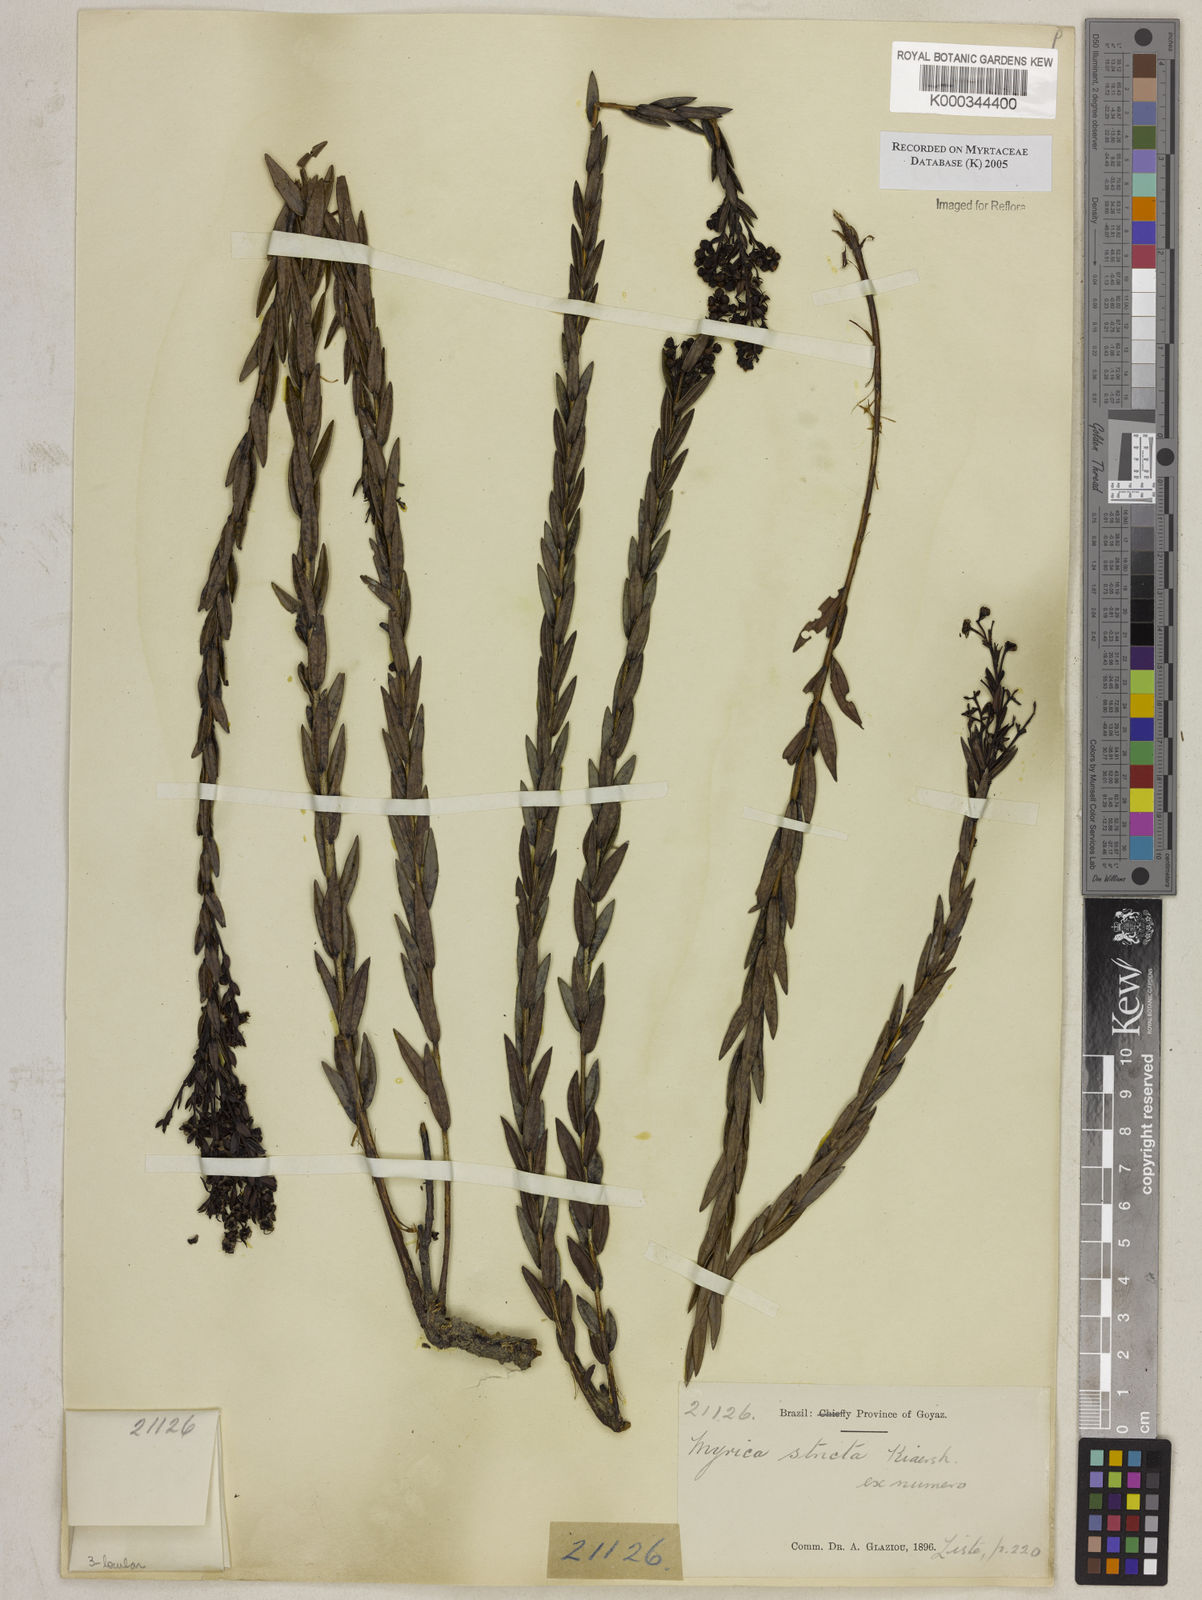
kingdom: Plantae
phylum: Tracheophyta
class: Magnoliopsida
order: Myrtales
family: Myrtaceae
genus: Myrcia
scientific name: Myrcia stricta
